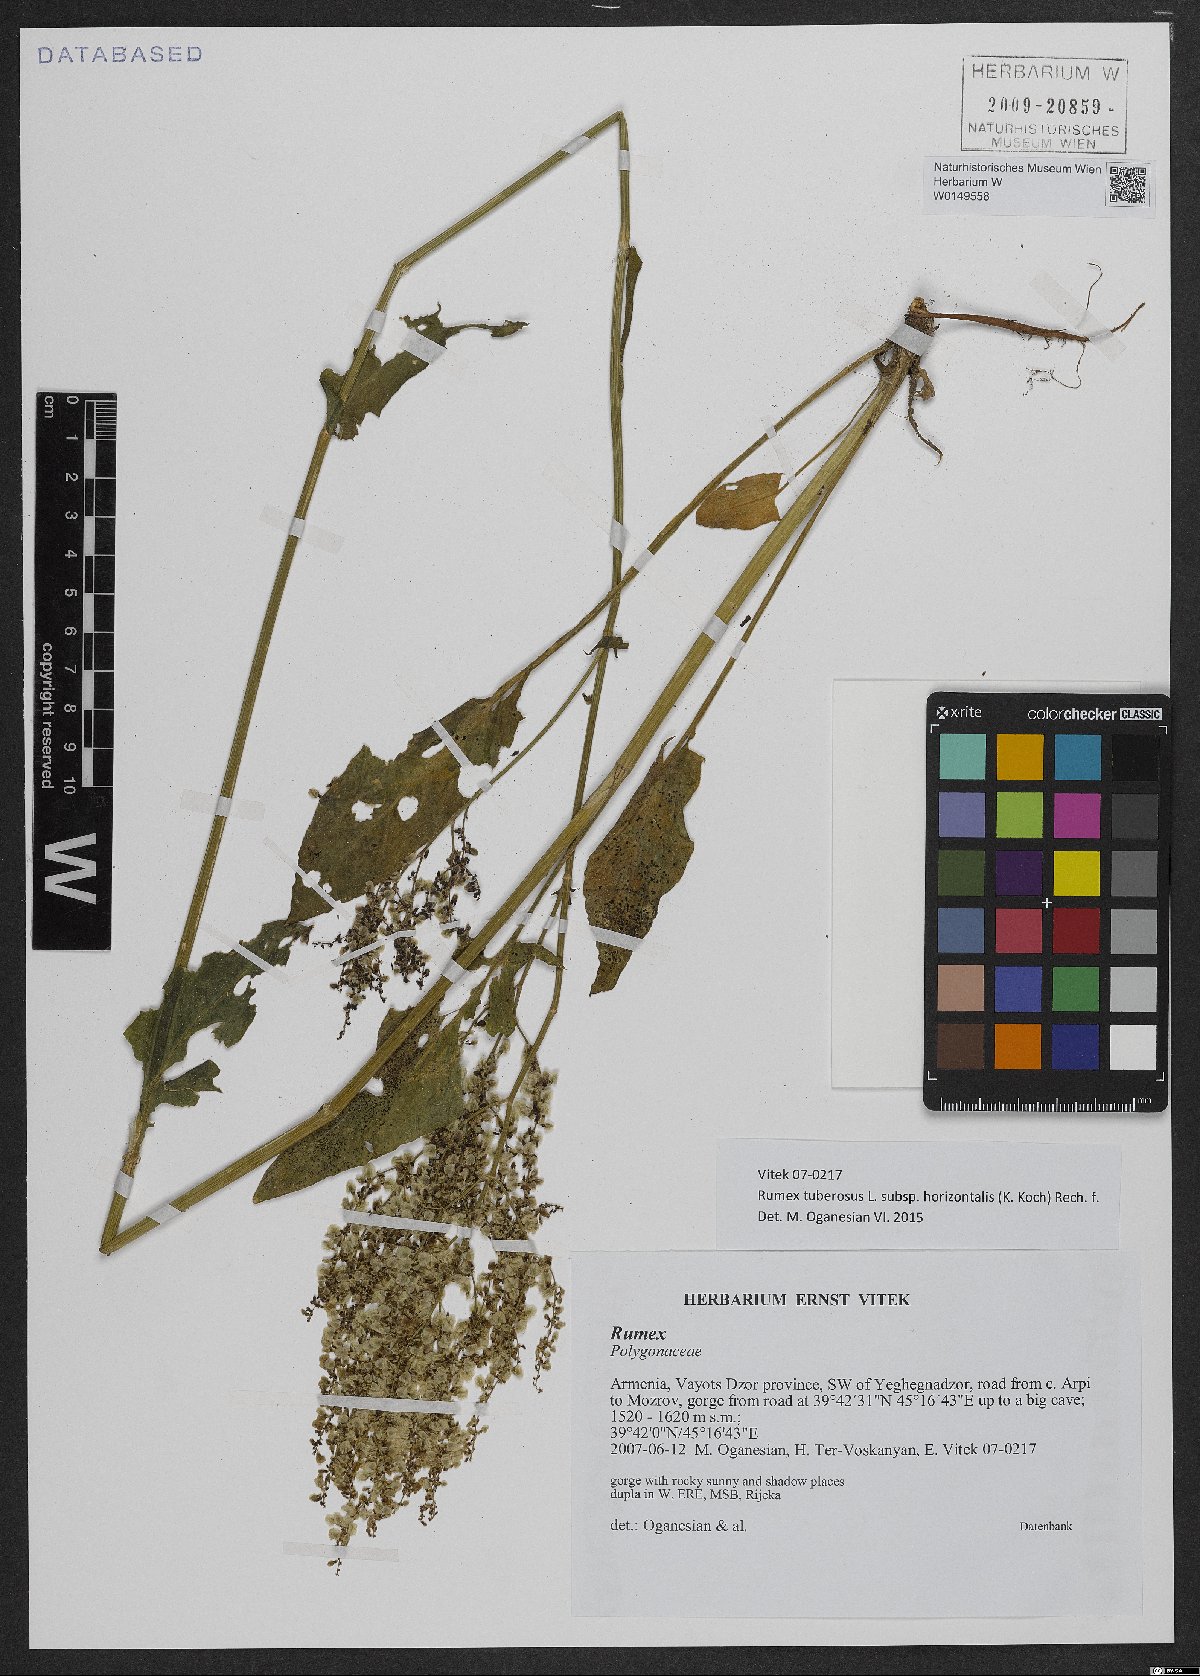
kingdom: Plantae
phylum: Tracheophyta
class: Magnoliopsida
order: Caryophyllales
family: Polygonaceae
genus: Rumex
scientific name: Rumex tuberosus
